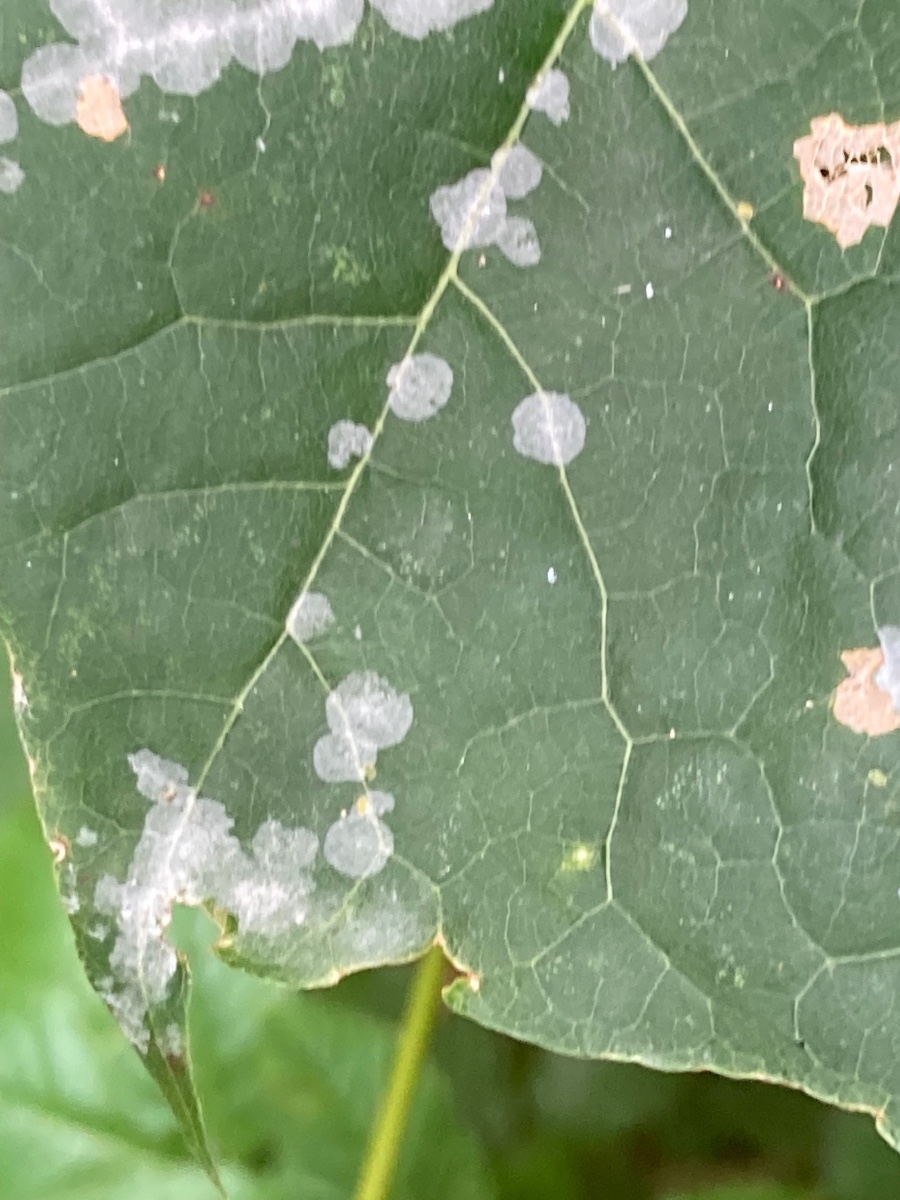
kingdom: Fungi
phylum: Ascomycota
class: Leotiomycetes
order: Helotiales
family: Erysiphaceae
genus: Sawadaea
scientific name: Sawadaea tulasnei
